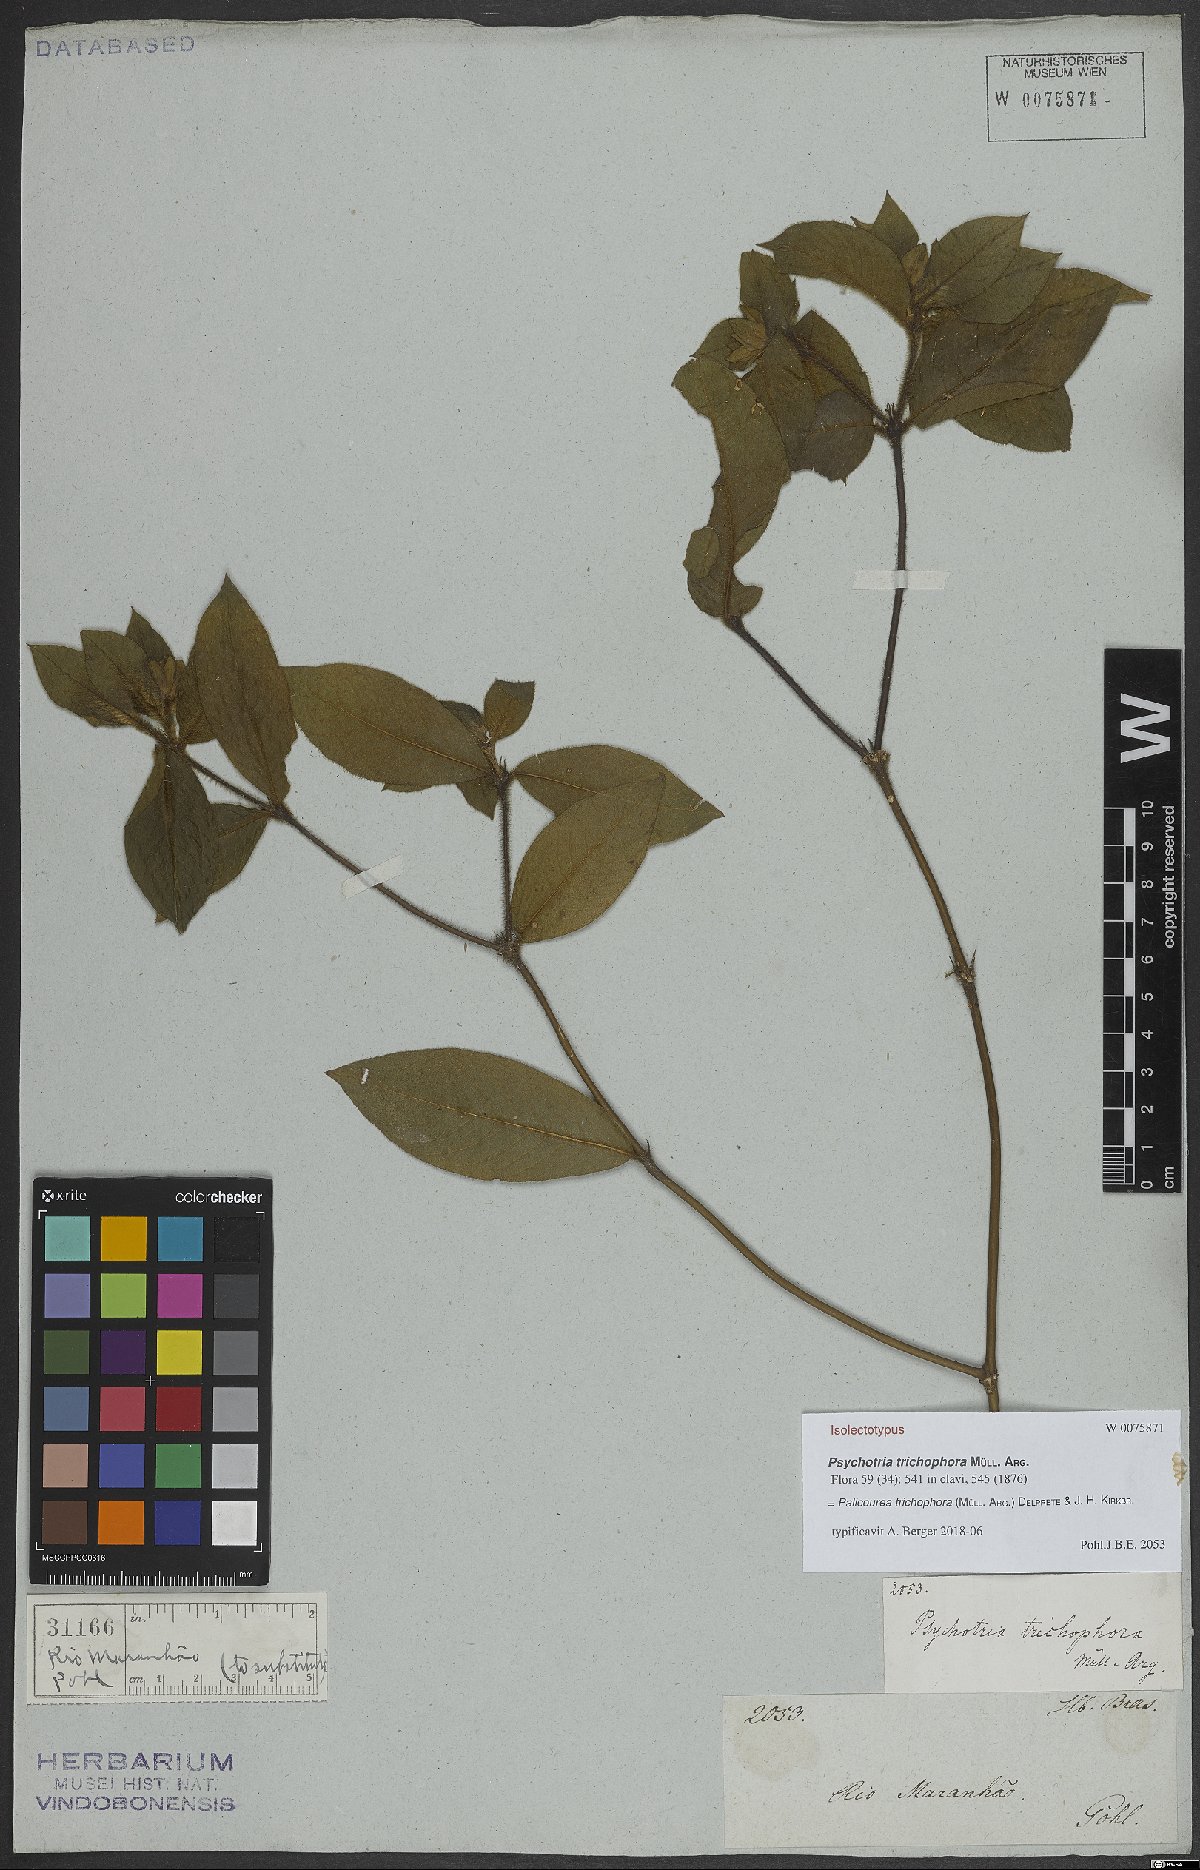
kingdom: Plantae
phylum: Tracheophyta
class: Magnoliopsida
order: Gentianales
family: Rubiaceae
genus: Palicourea
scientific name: Palicourea trichophora
